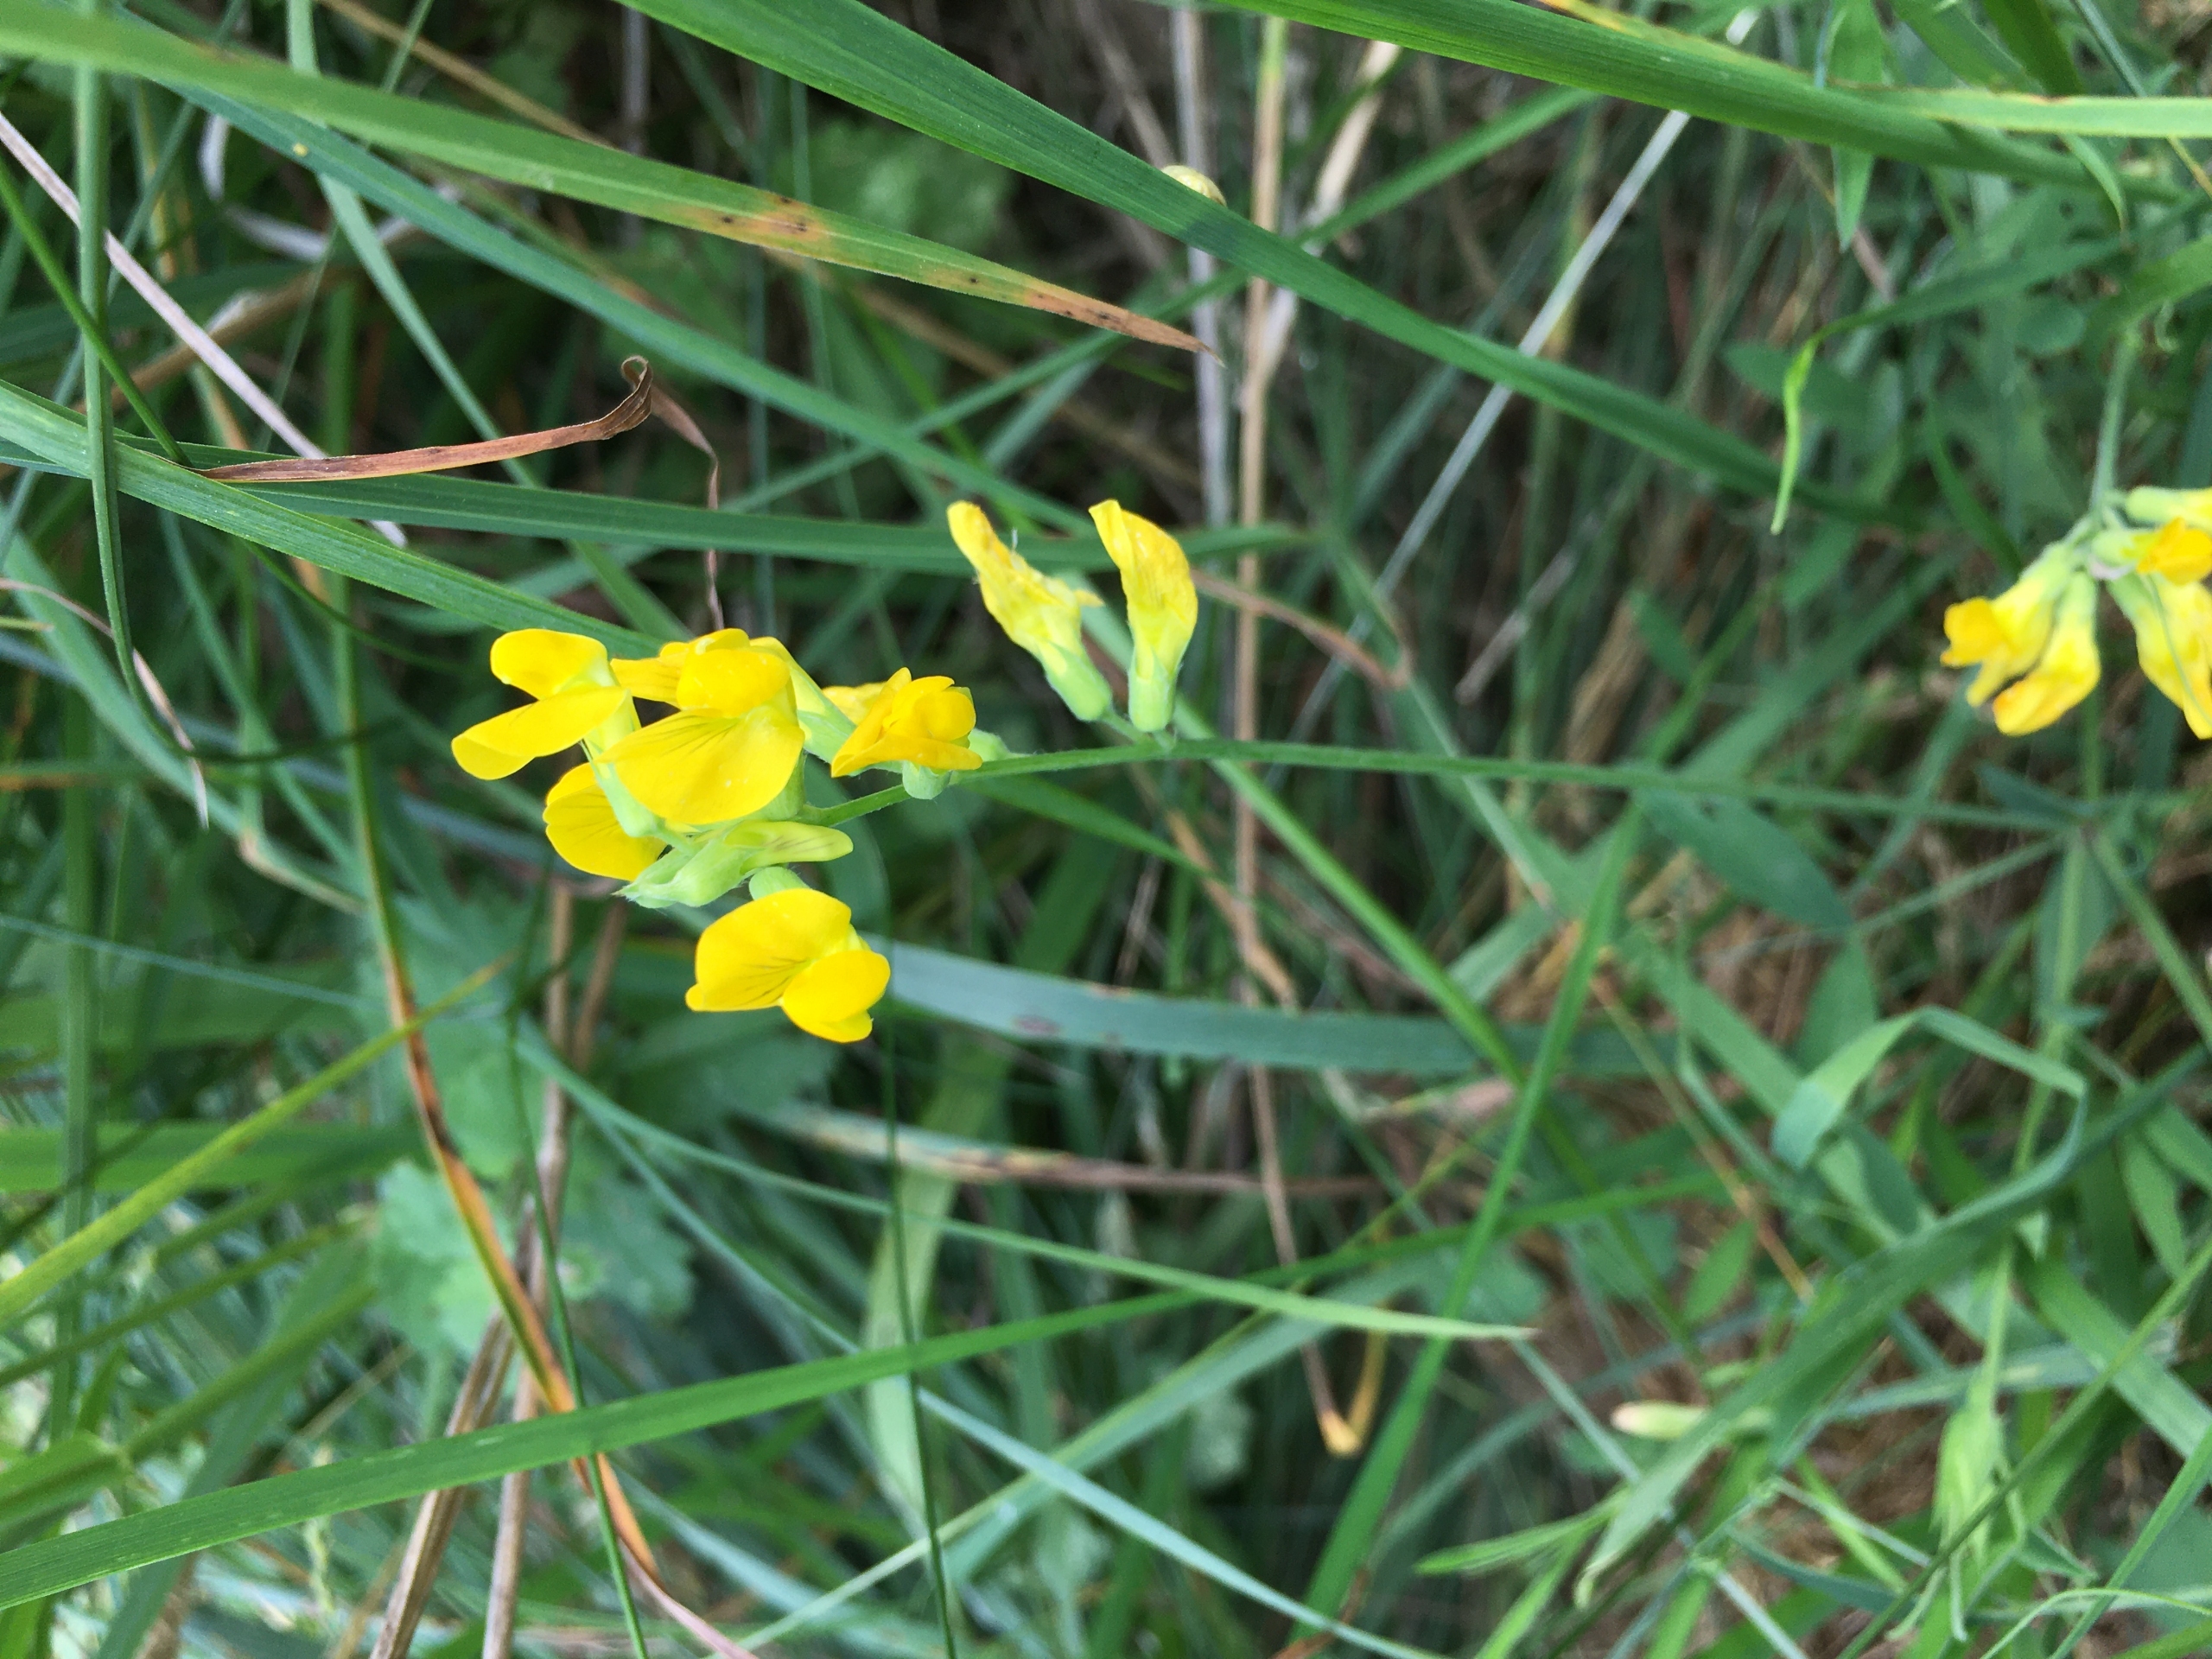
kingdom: Plantae
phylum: Tracheophyta
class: Magnoliopsida
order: Fabales
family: Fabaceae
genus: Lathyrus
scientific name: Lathyrus pratensis
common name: Gul fladbælg
